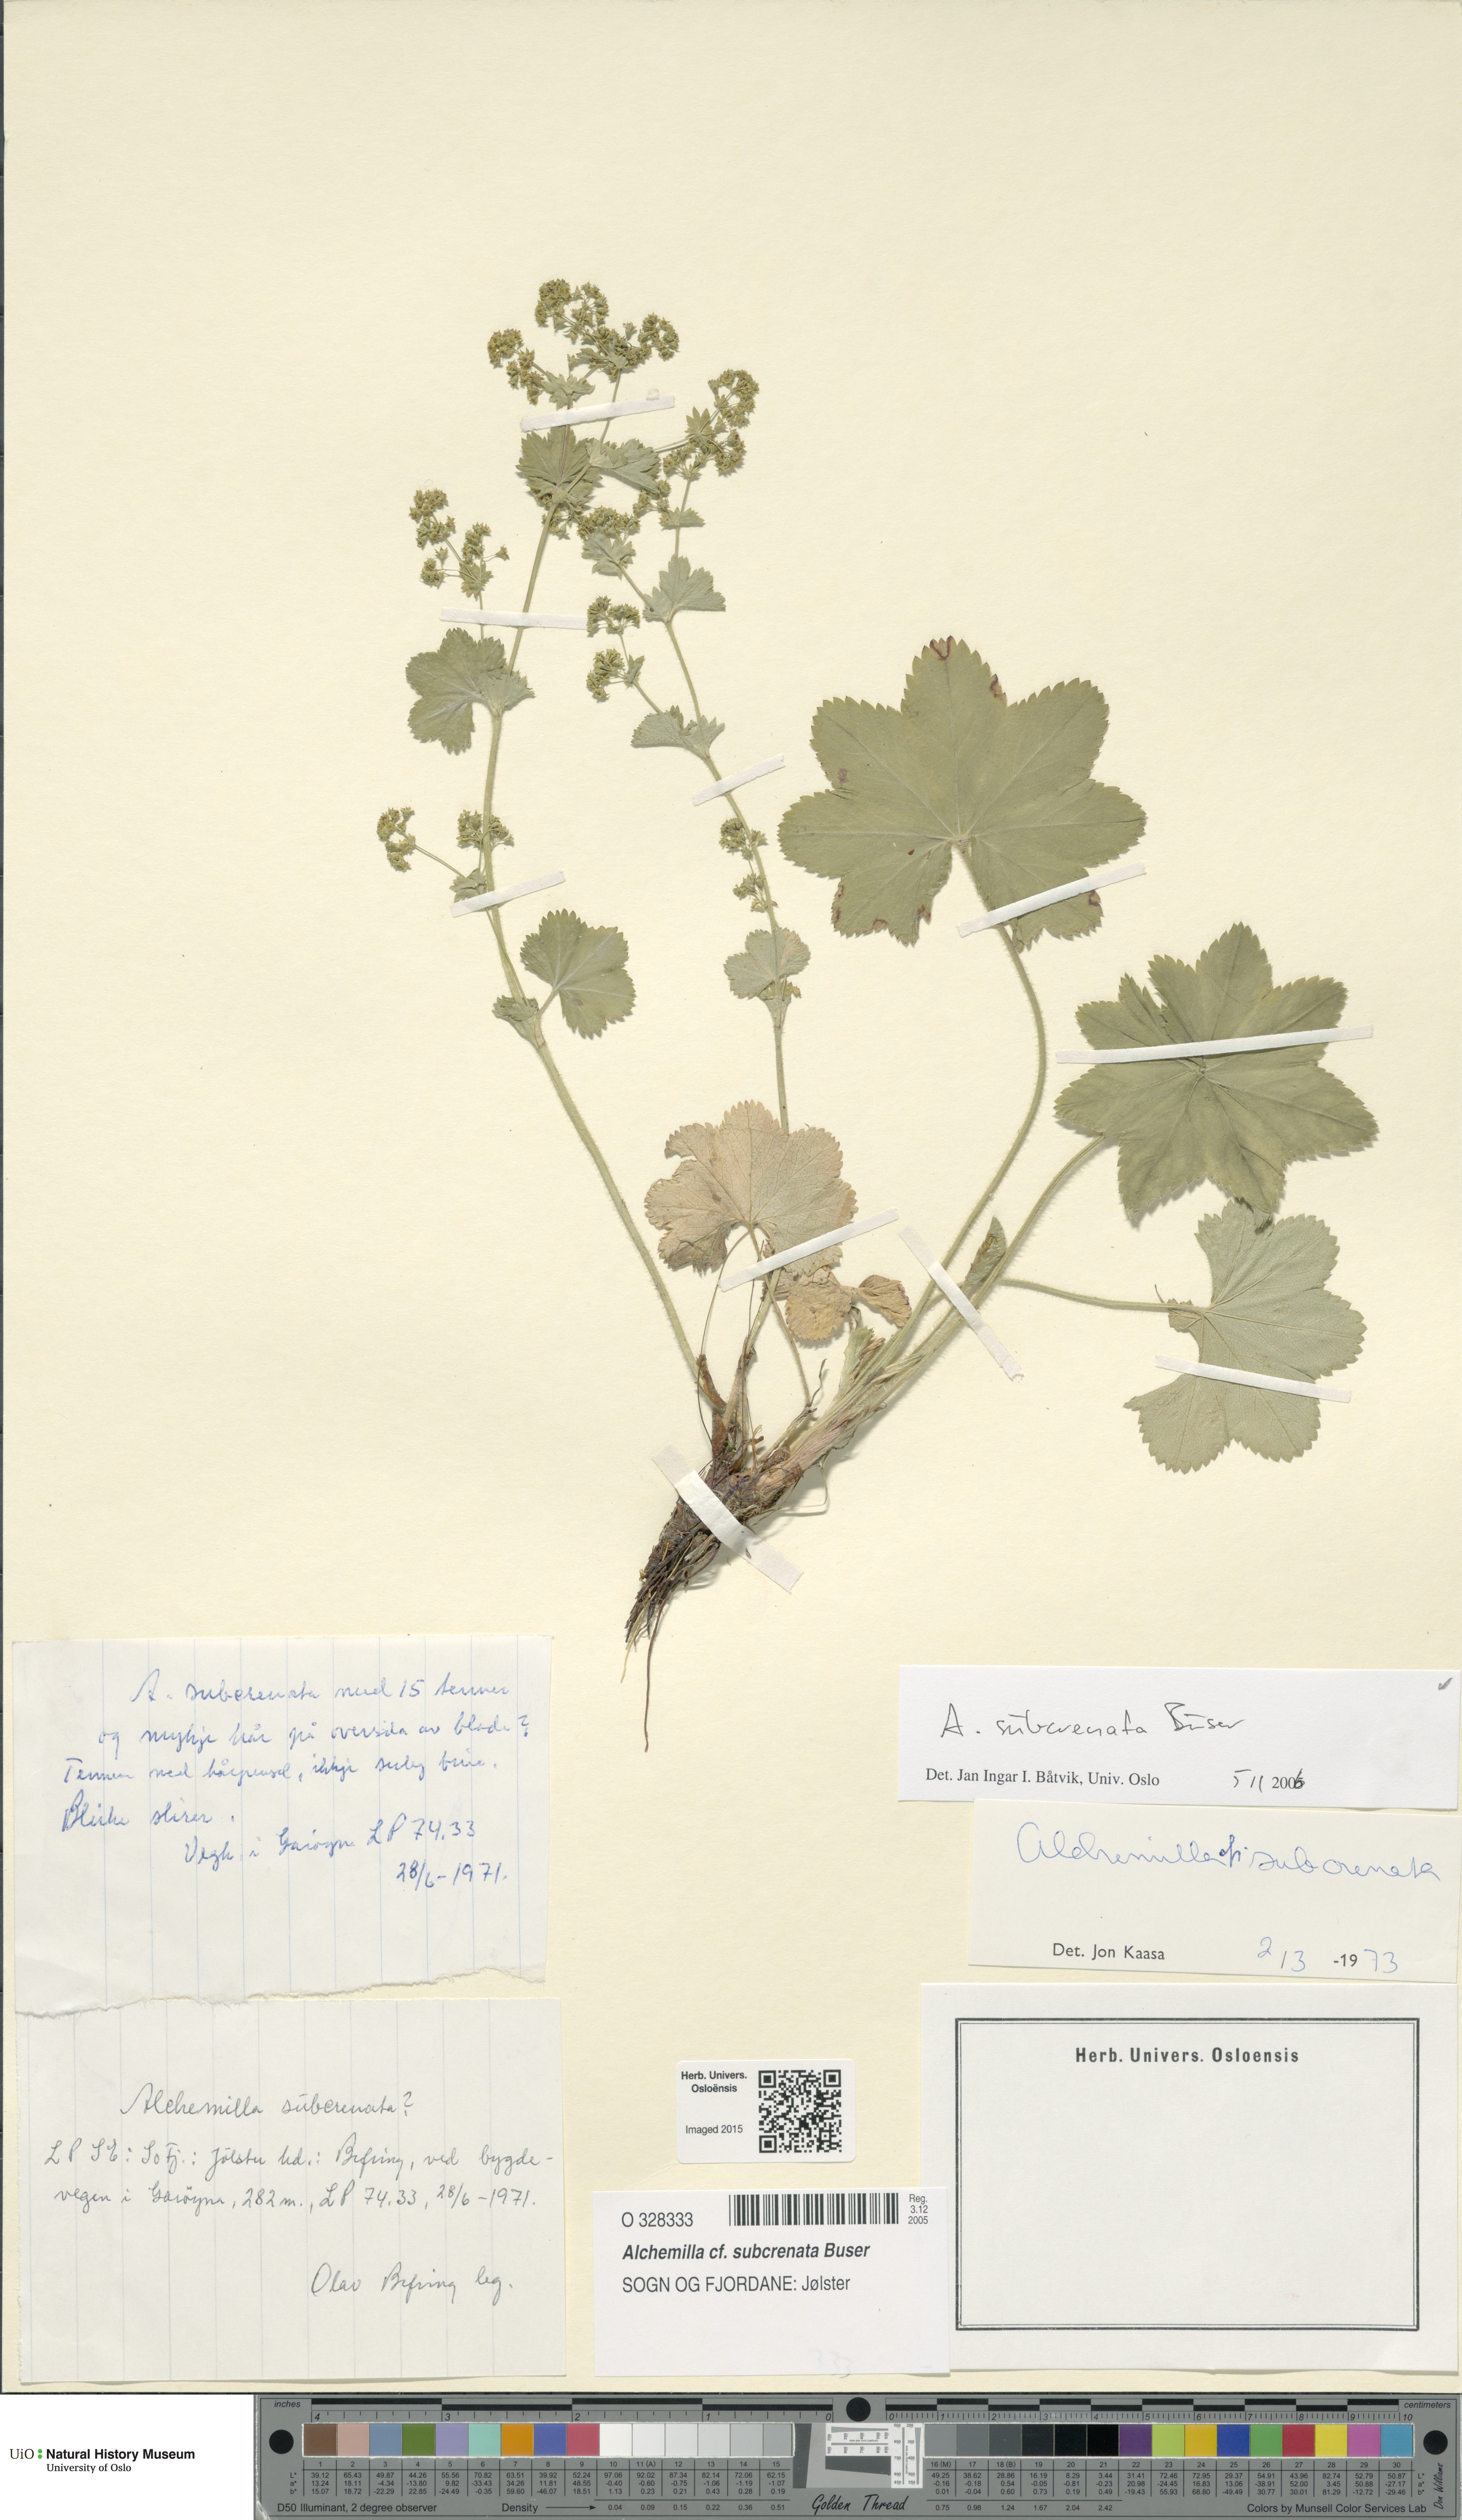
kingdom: Plantae
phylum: Tracheophyta
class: Magnoliopsida
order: Rosales
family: Rosaceae
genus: Alchemilla
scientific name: Alchemilla subcrenata
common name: Broadtooth lady's mantle
